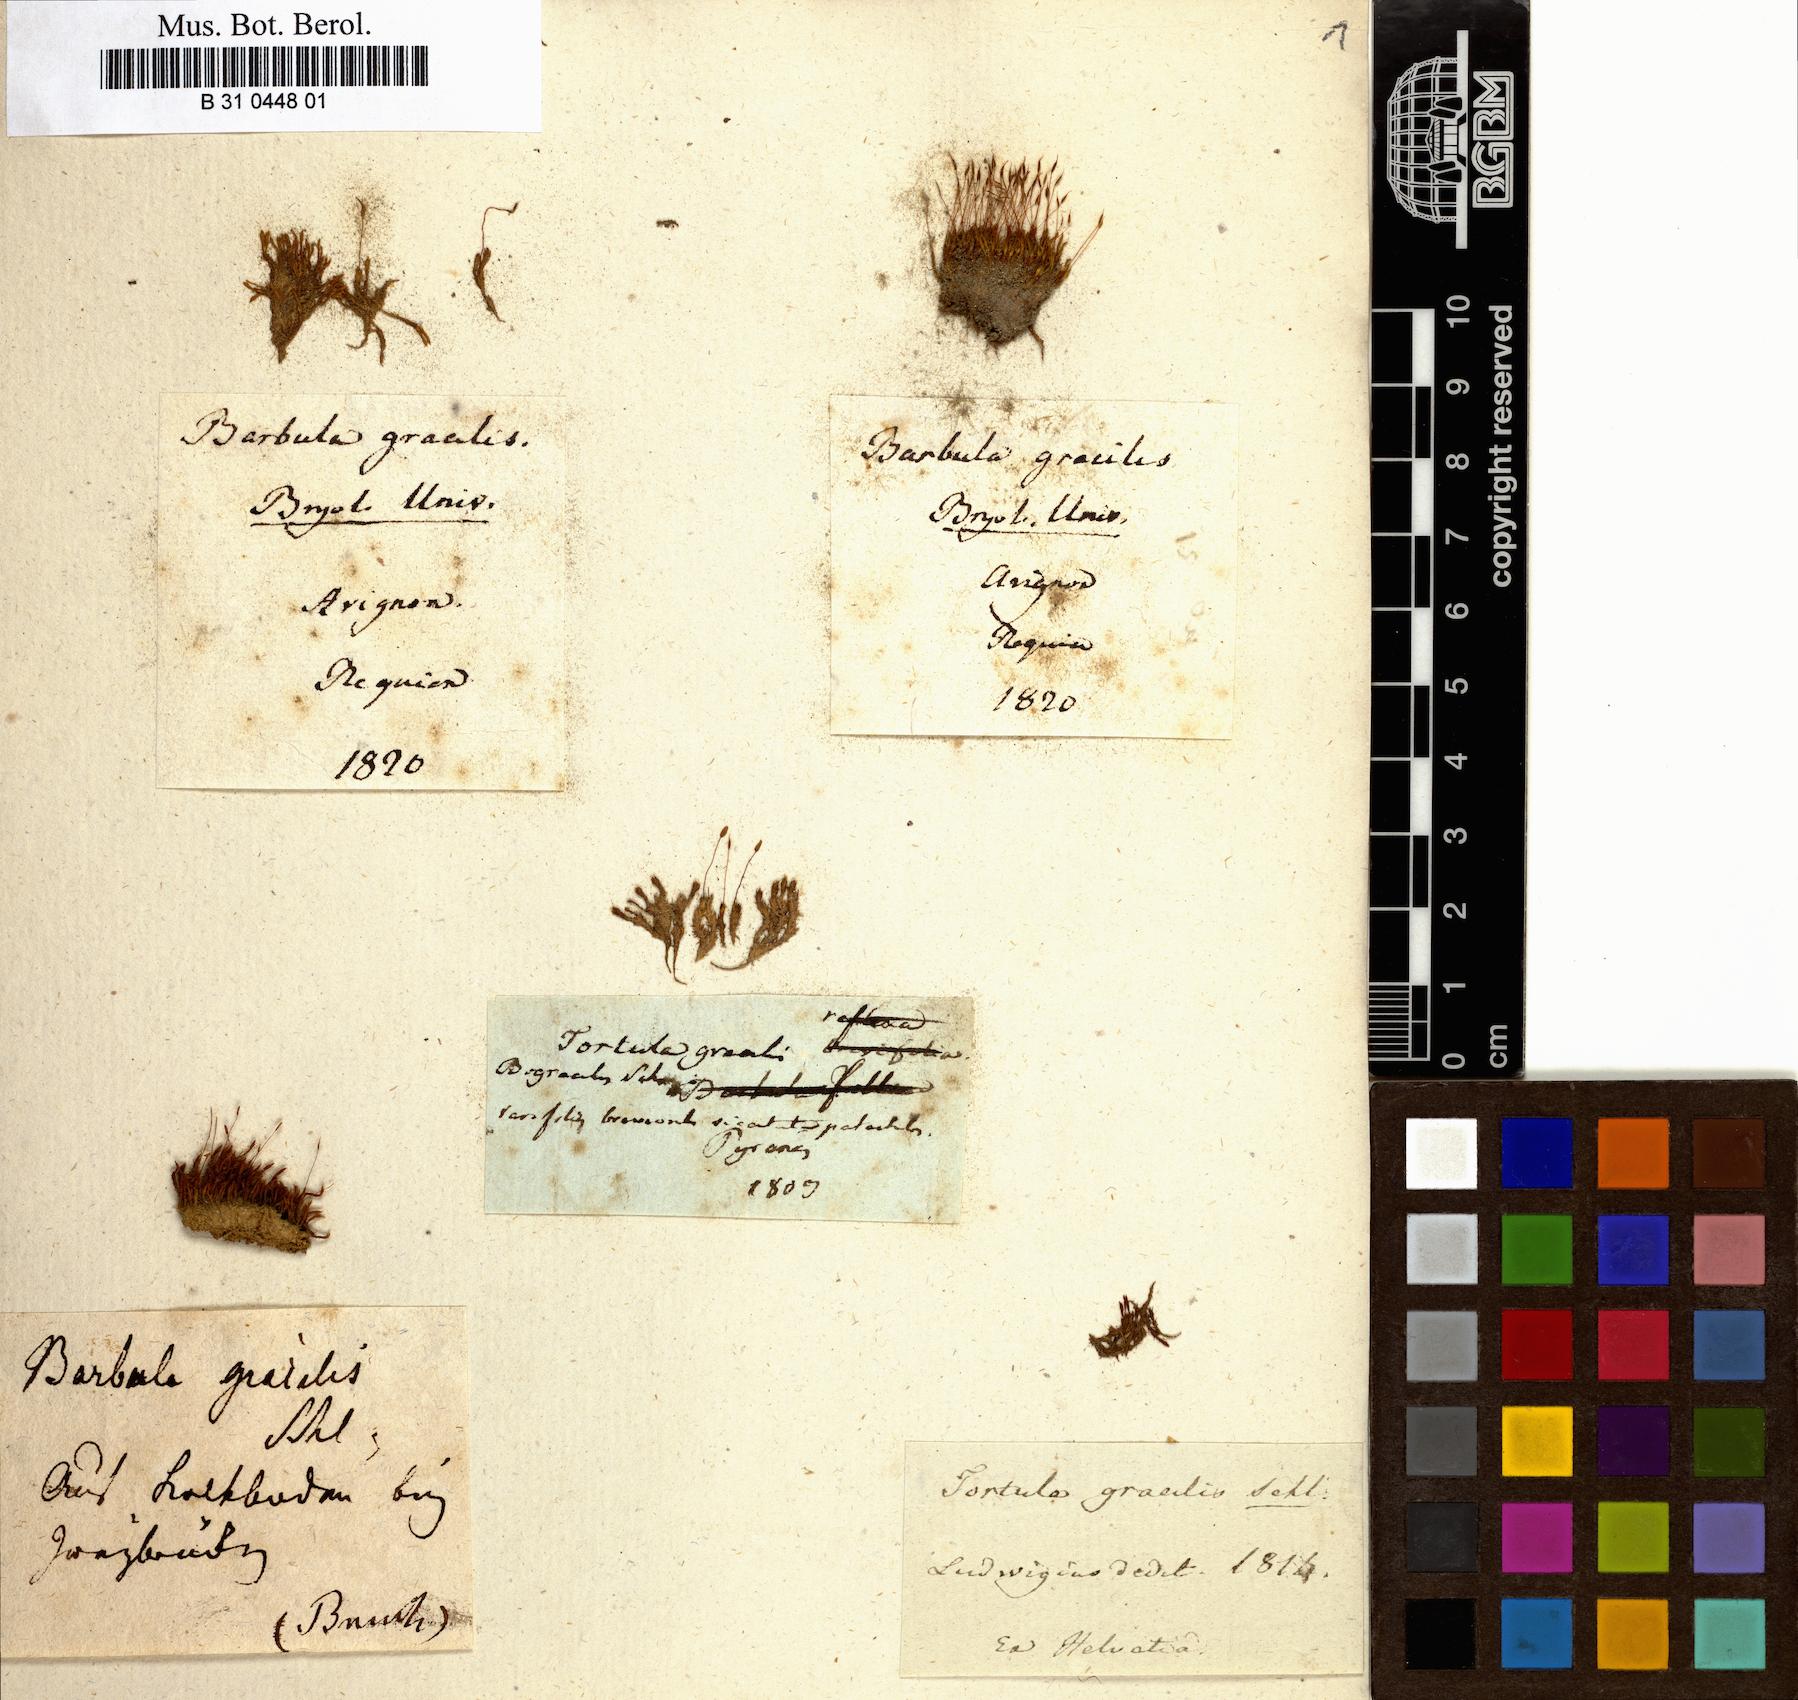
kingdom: Plantae
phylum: Bryophyta
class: Bryopsida
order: Pottiales
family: Pottiaceae
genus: Geheebia
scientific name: Geheebia fallax
